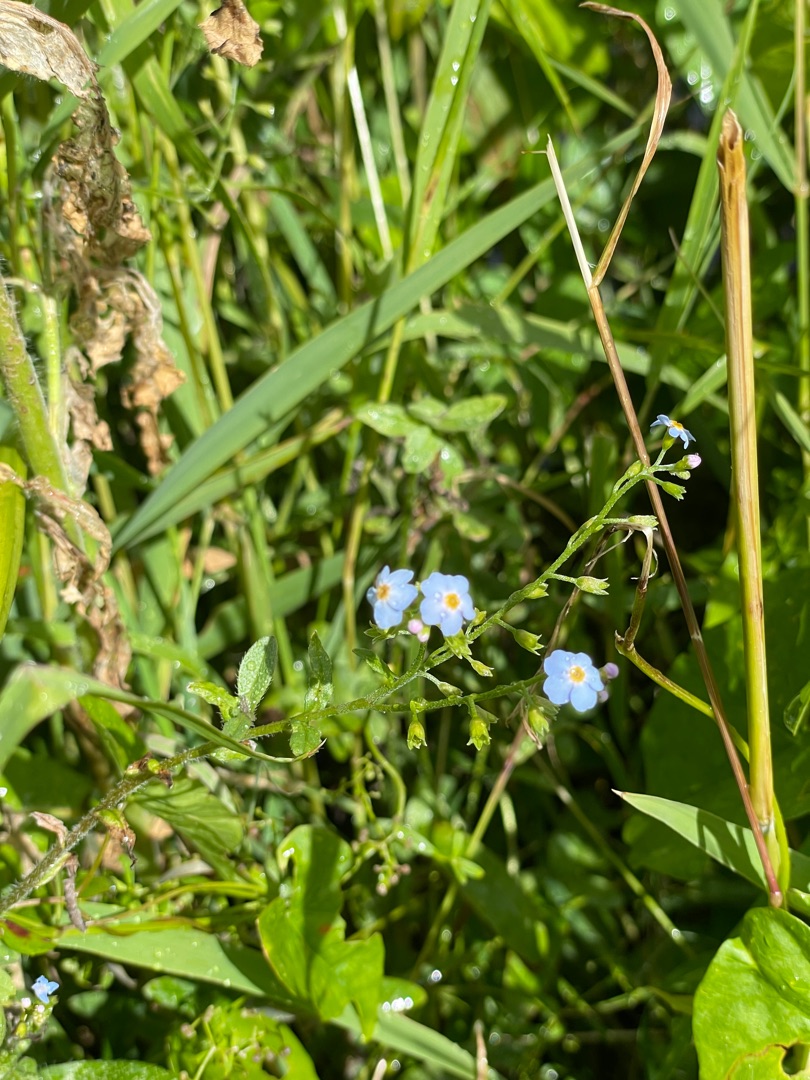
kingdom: Plantae
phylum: Tracheophyta
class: Magnoliopsida
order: Boraginales
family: Boraginaceae
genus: Myosotis
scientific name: Myosotis scorpioides
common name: Eng-forglemmigej
